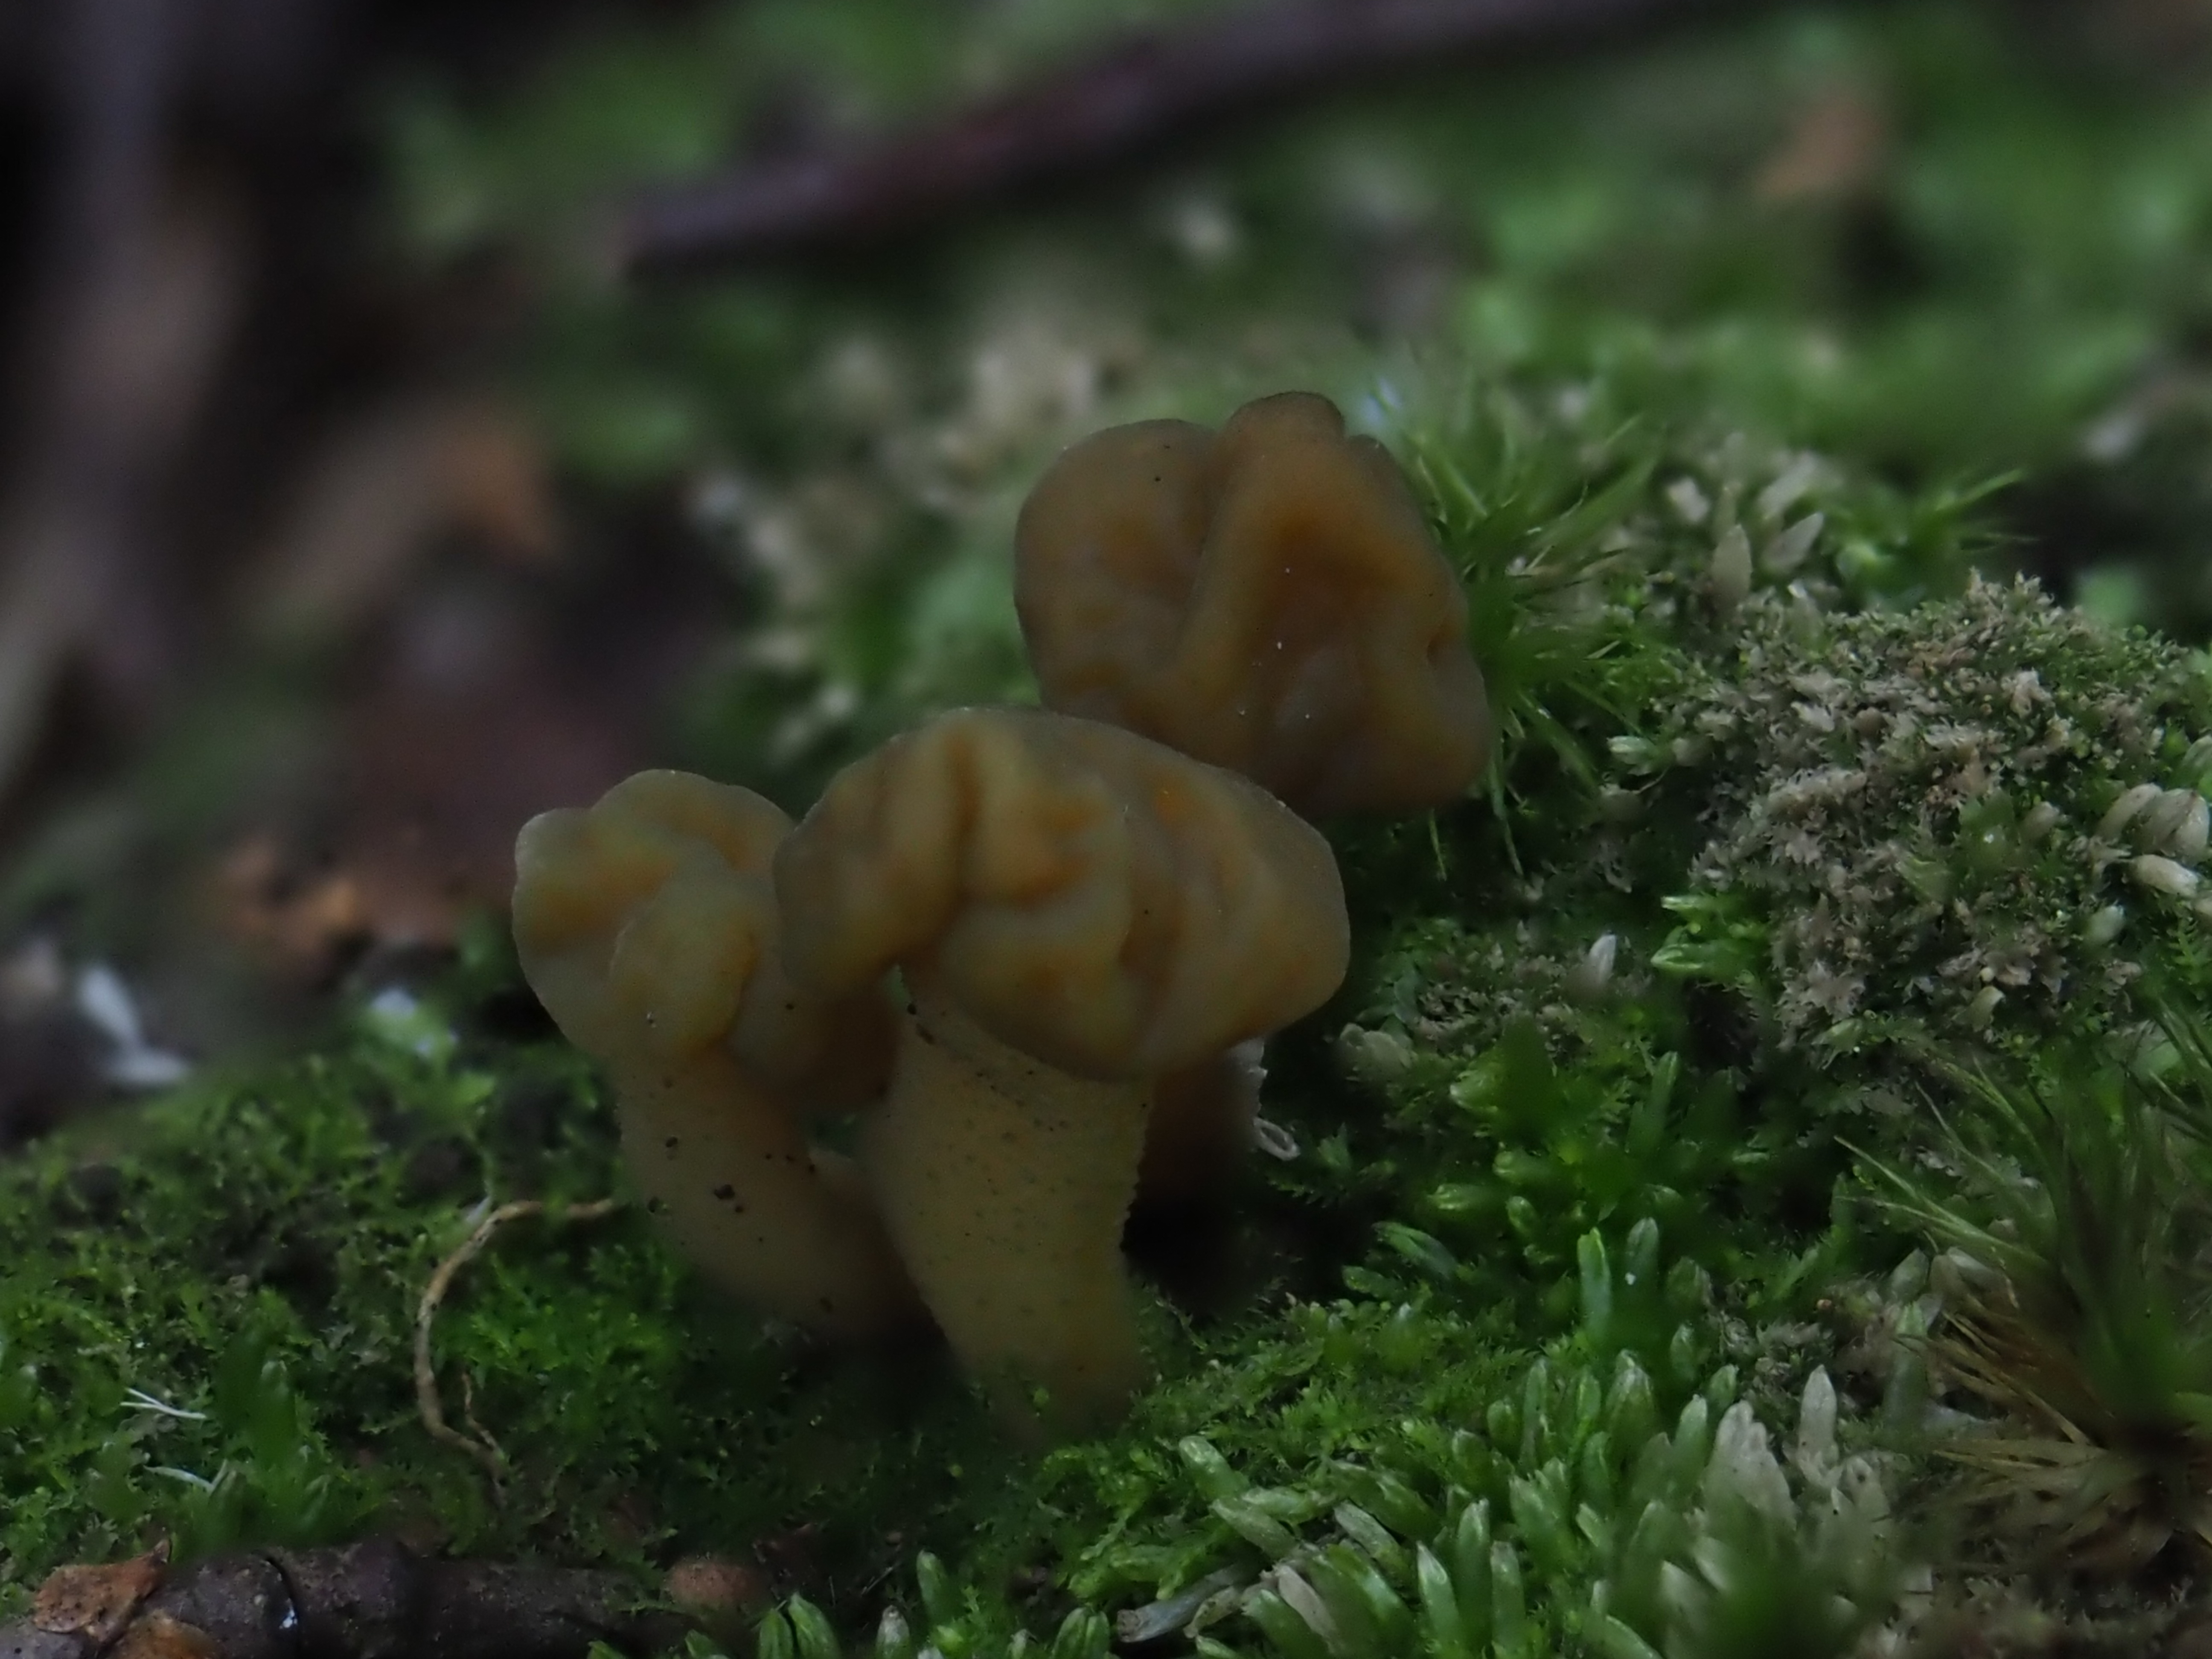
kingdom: Fungi
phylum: Ascomycota
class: Leotiomycetes
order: Leotiales
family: Leotiaceae
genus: Leotia
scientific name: Leotia
